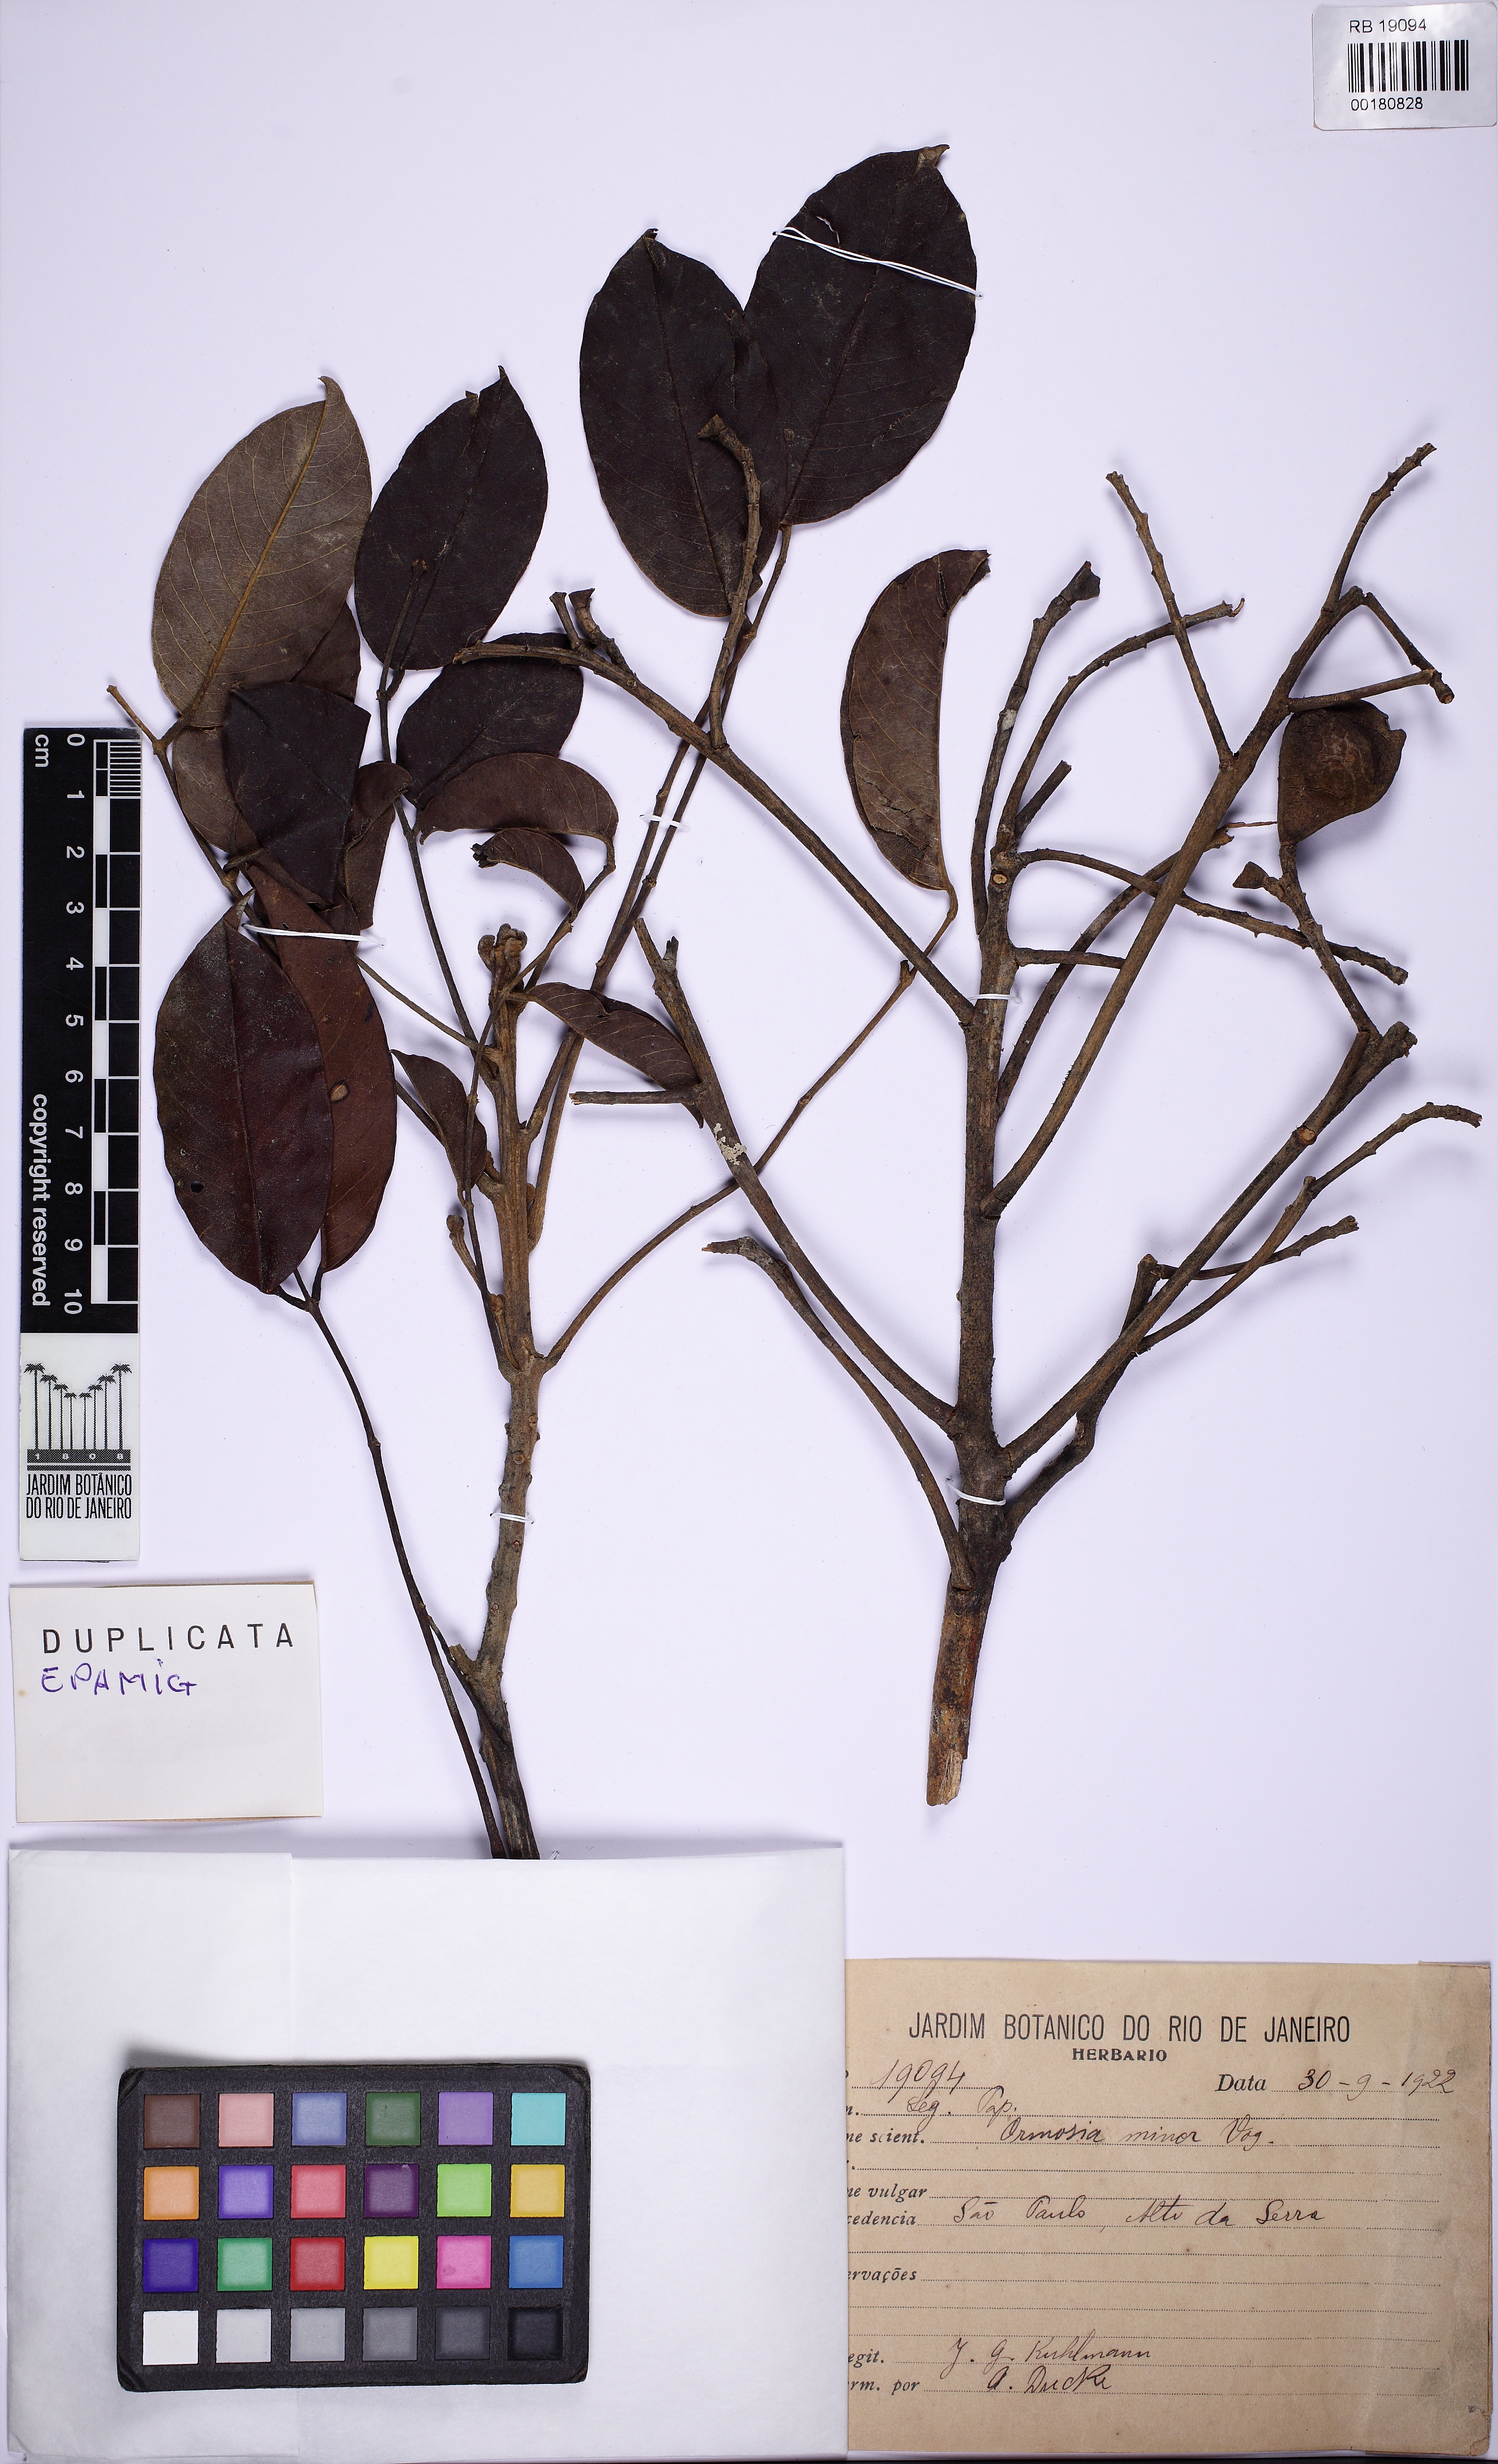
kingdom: Plantae
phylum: Tracheophyta
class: Magnoliopsida
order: Fabales
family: Fabaceae
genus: Ormosia
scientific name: Ormosia minor
